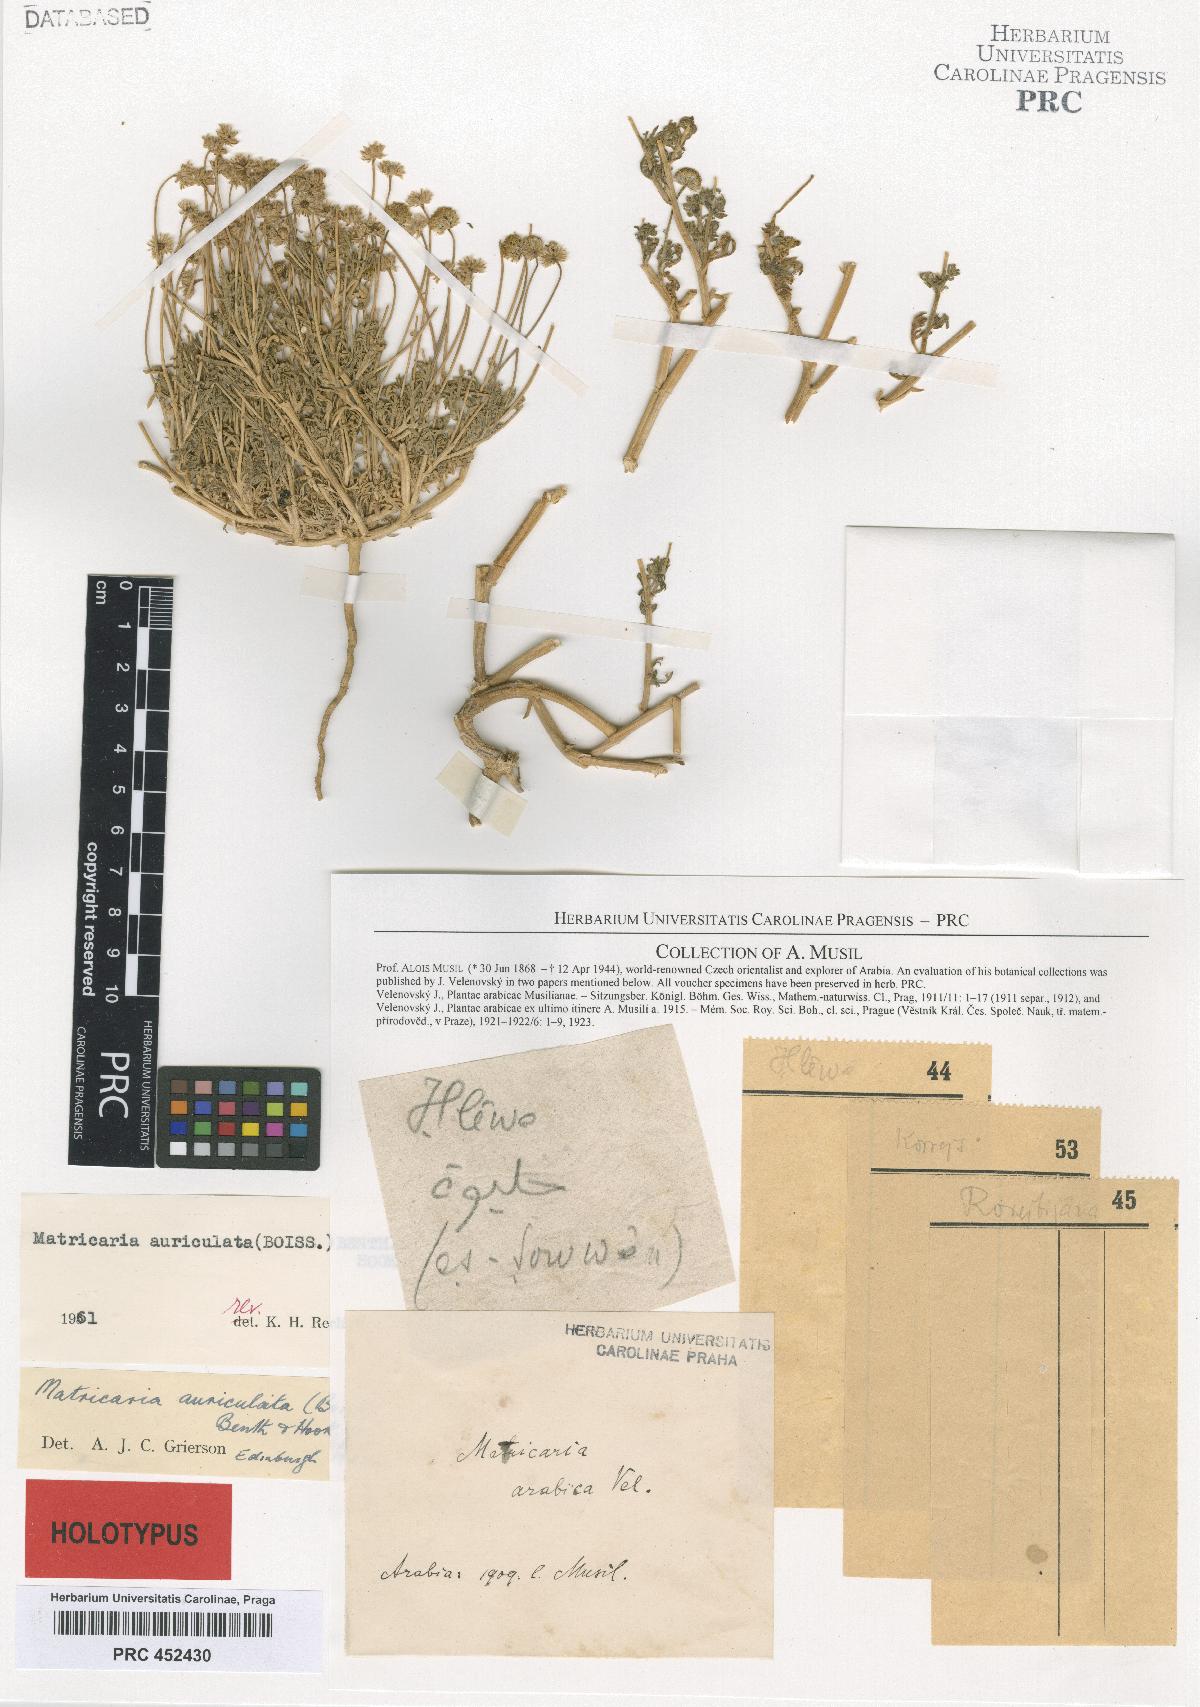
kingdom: Plantae
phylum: Tracheophyta
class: Magnoliopsida
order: Asterales
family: Asteraceae
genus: Matricaria
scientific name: Matricaria arabica
